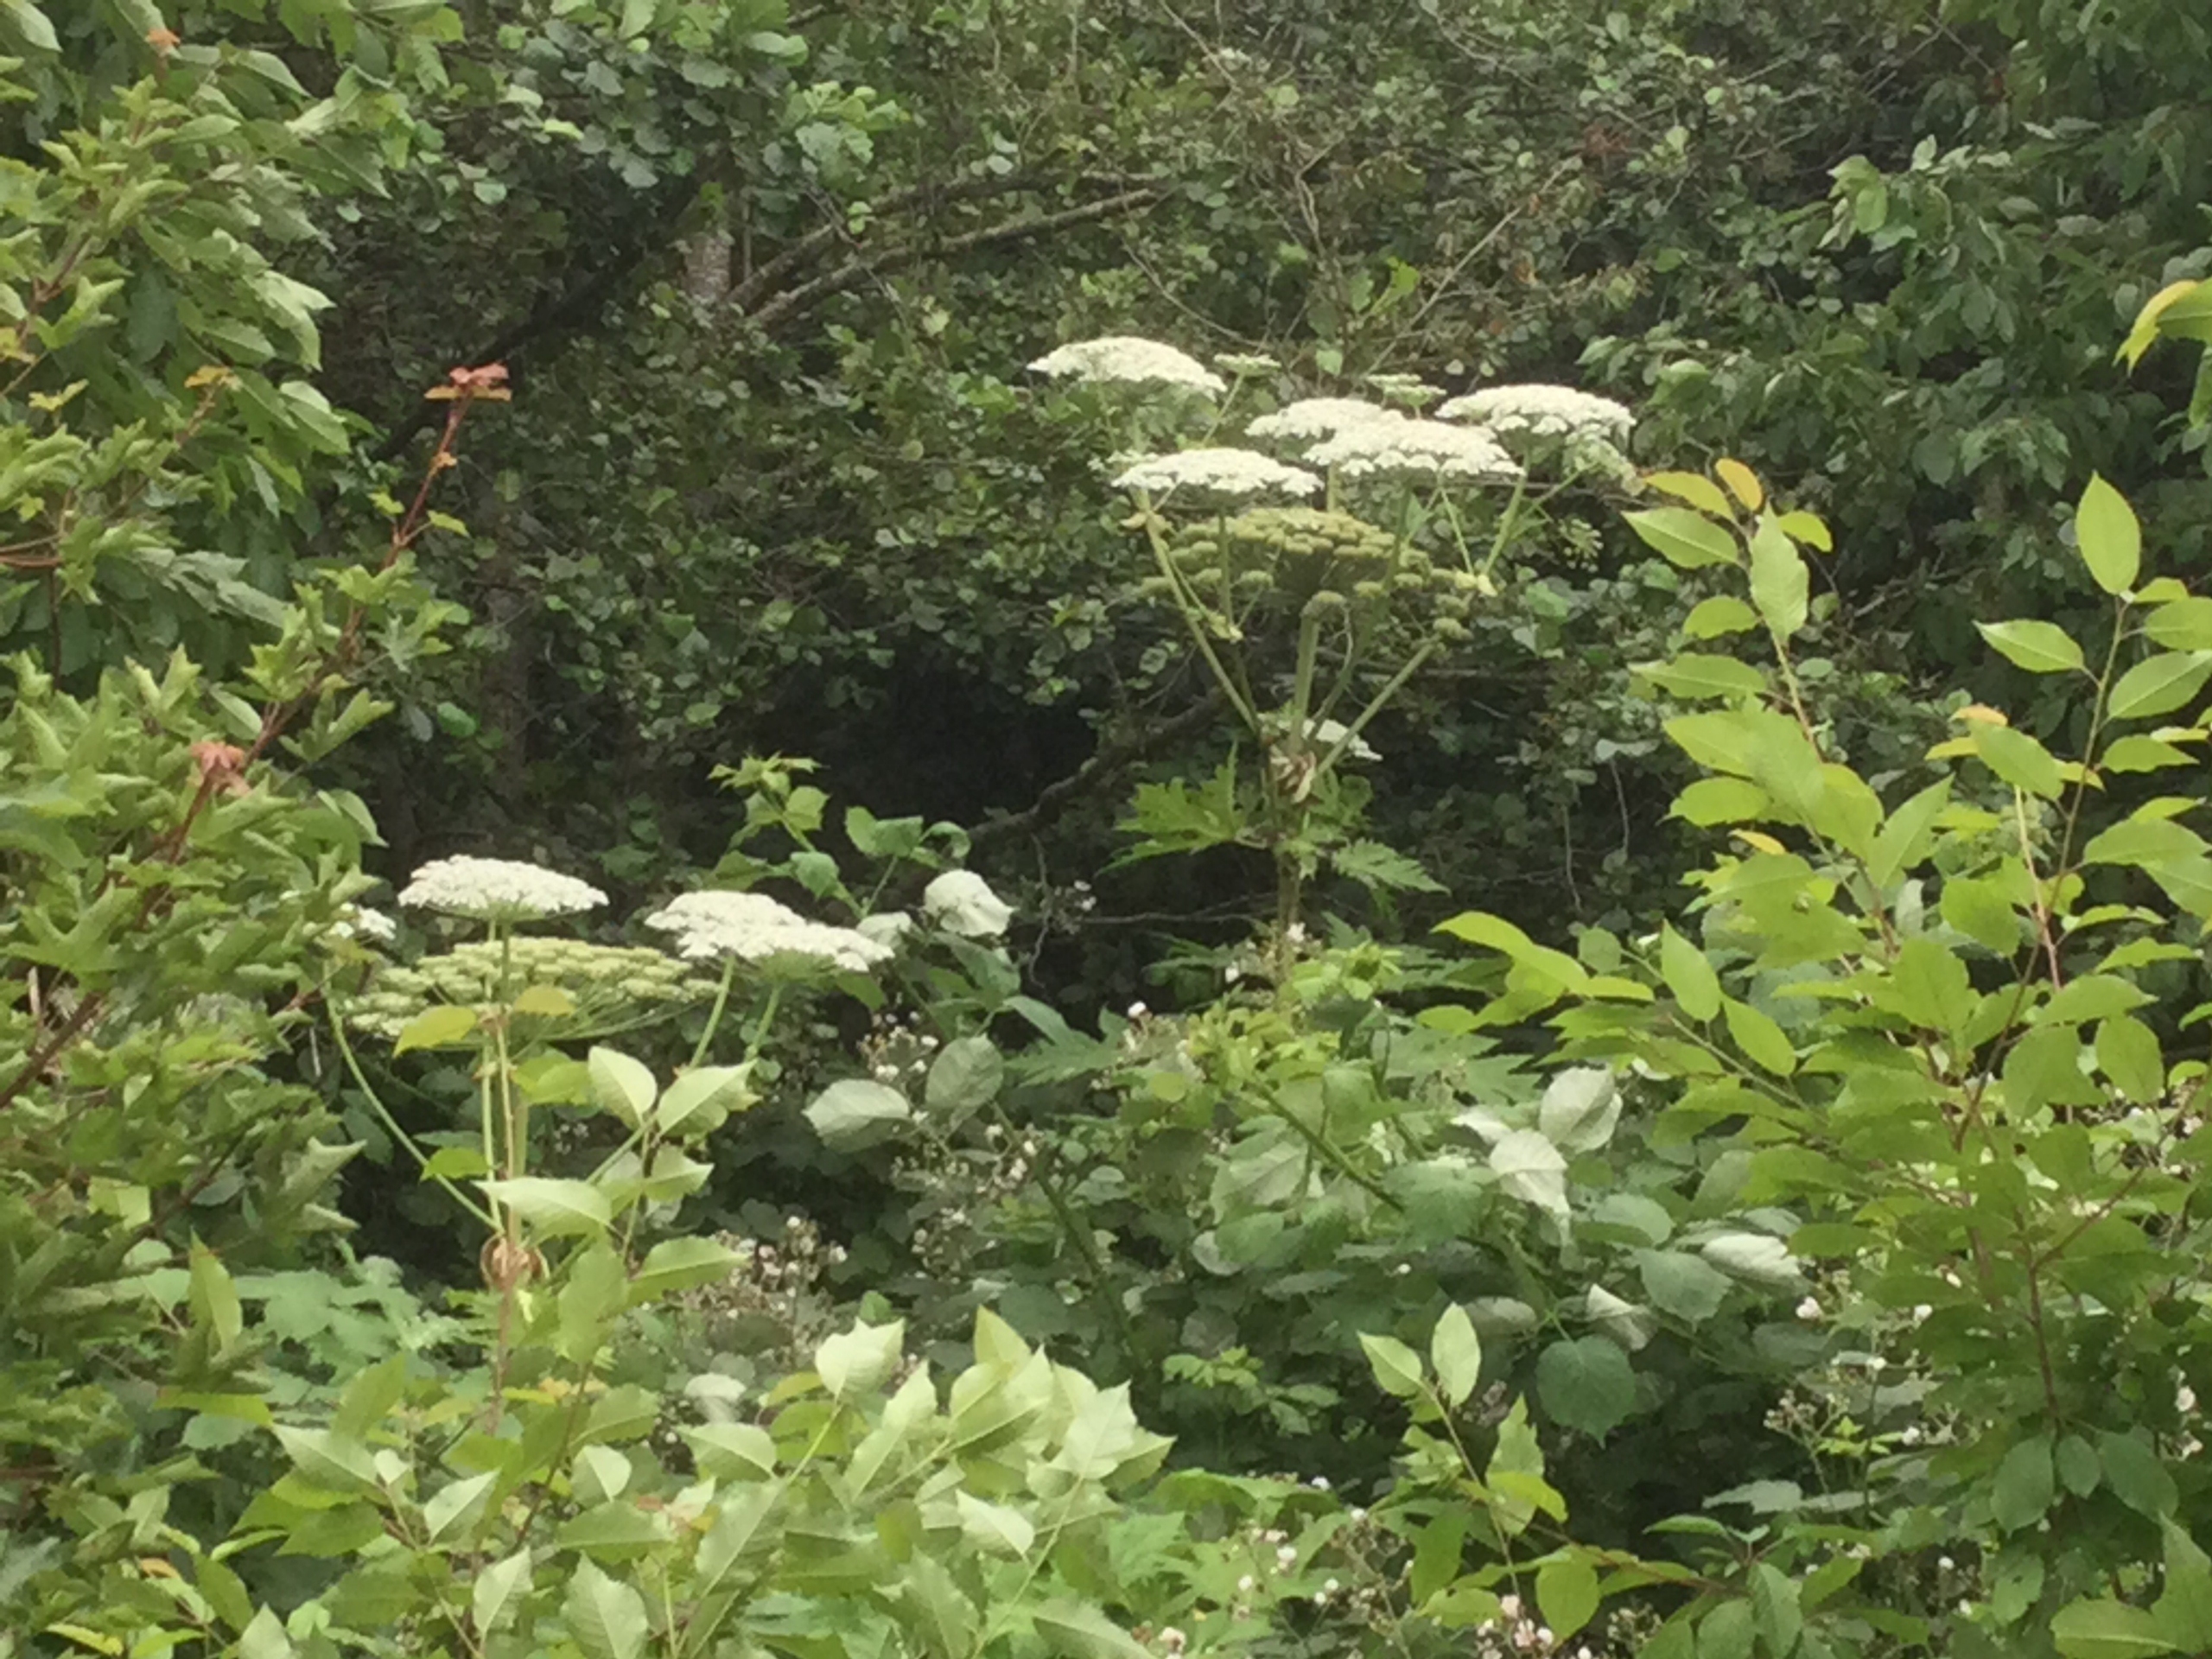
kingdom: Plantae
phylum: Tracheophyta
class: Magnoliopsida
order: Apiales
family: Apiaceae
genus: Heracleum
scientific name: Heracleum mantegazzianum
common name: Kæmpe-bjørneklo
